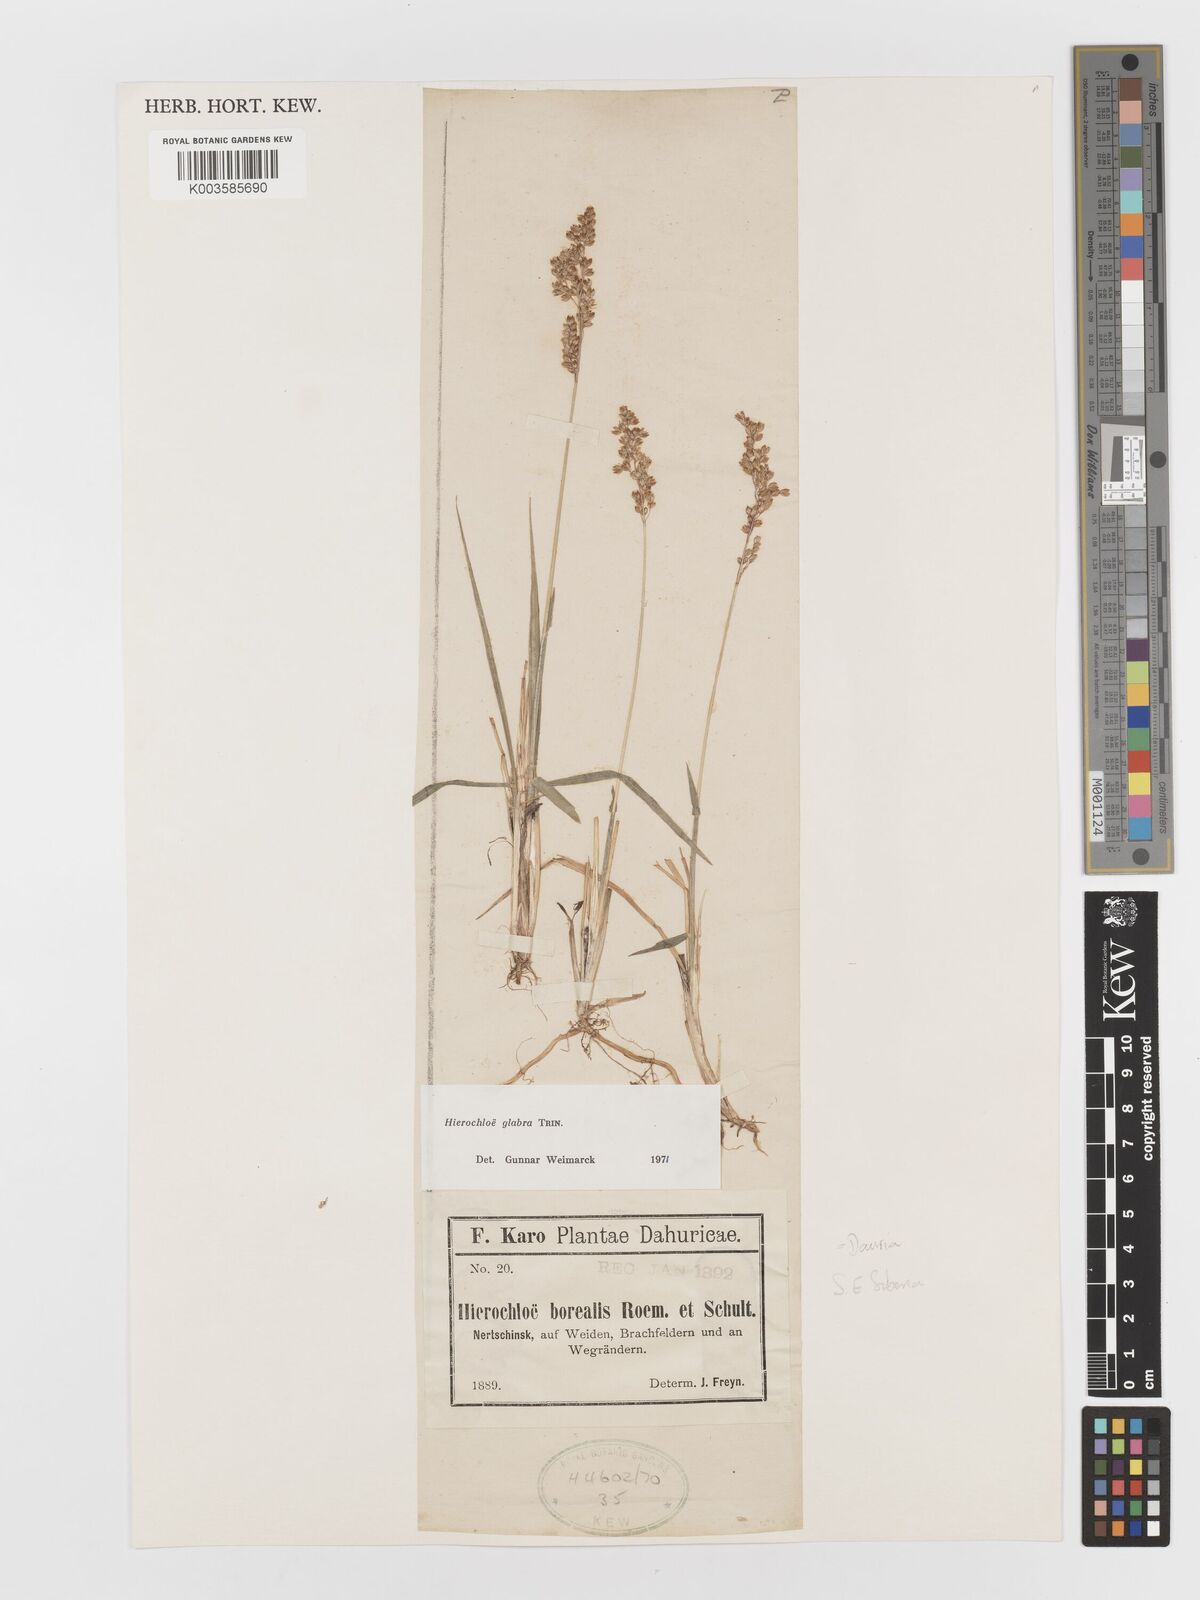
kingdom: Plantae
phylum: Tracheophyta
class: Liliopsida
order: Poales
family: Poaceae
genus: Anthoxanthum
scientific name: Anthoxanthum glabrum
